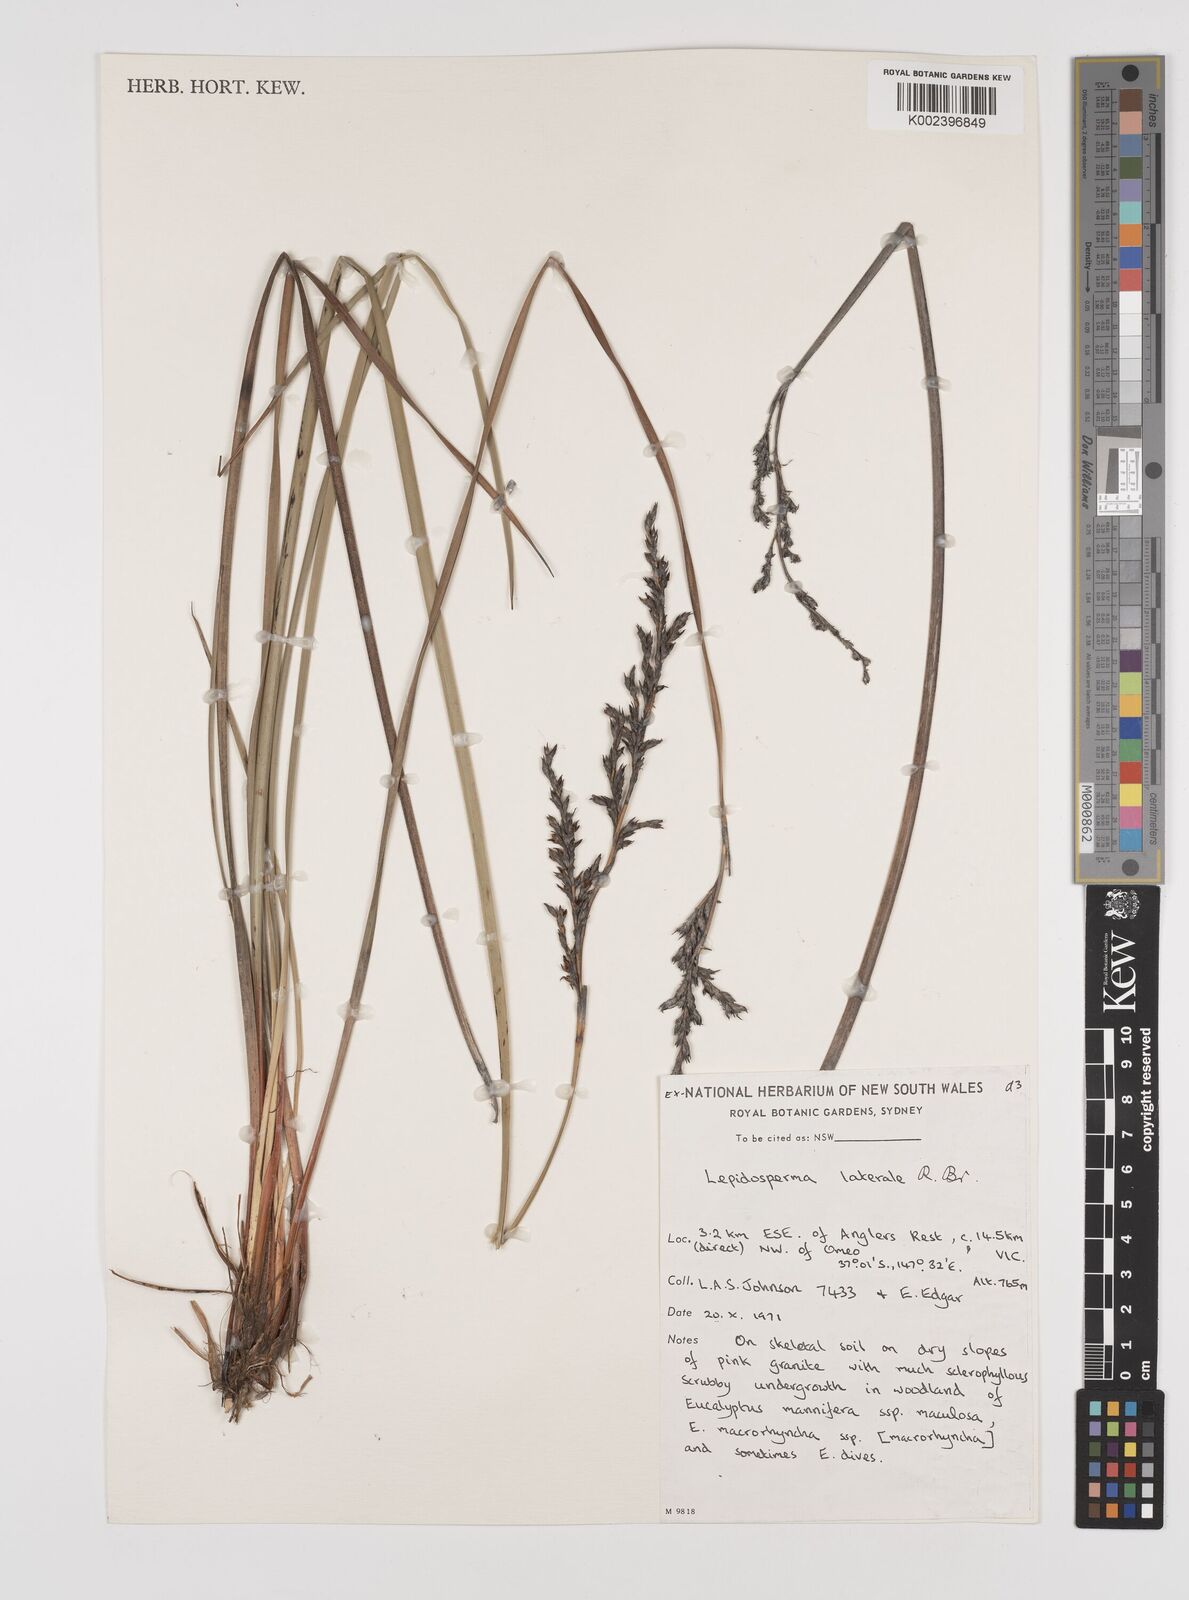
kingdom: Plantae
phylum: Tracheophyta
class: Liliopsida
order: Poales
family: Cyperaceae
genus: Lepidosperma
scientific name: Lepidosperma laterale
